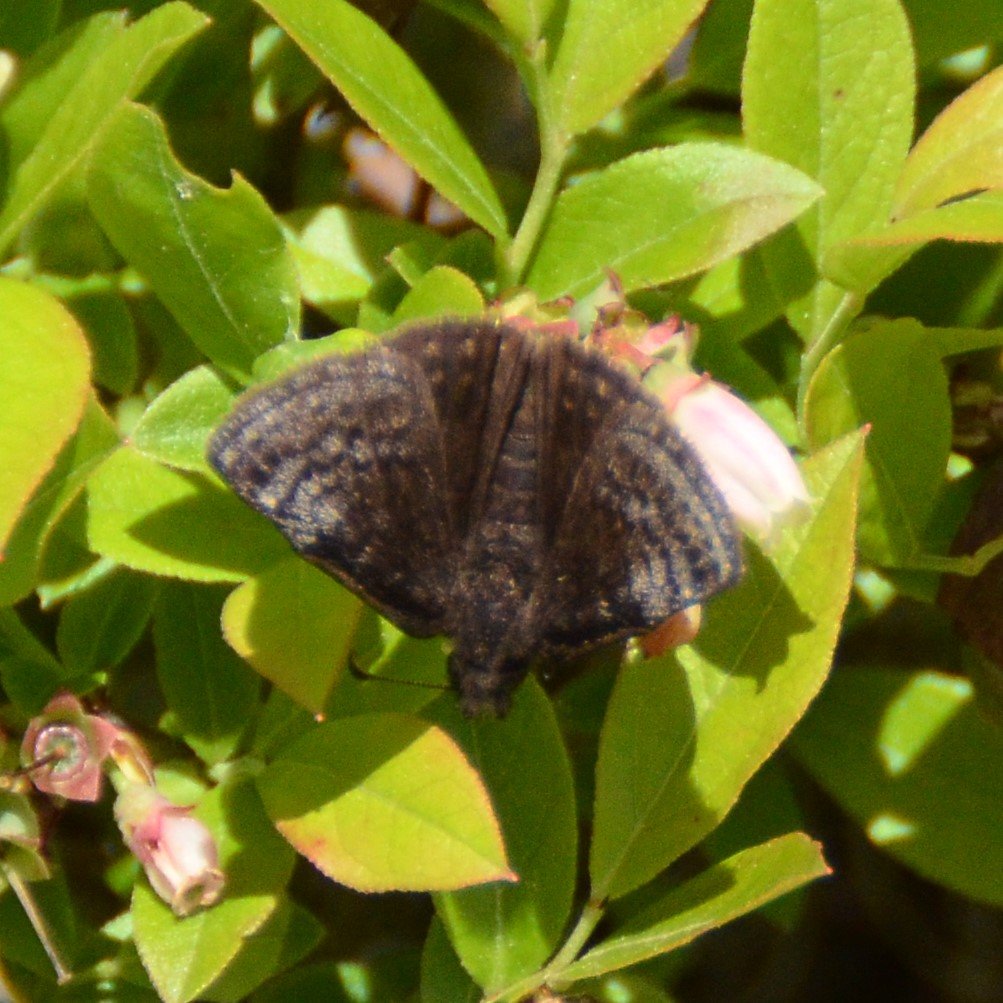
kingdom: Animalia
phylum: Arthropoda
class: Insecta
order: Lepidoptera
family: Hesperiidae
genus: Erynnis
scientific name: Erynnis icelus
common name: Dreamy Duskywing
